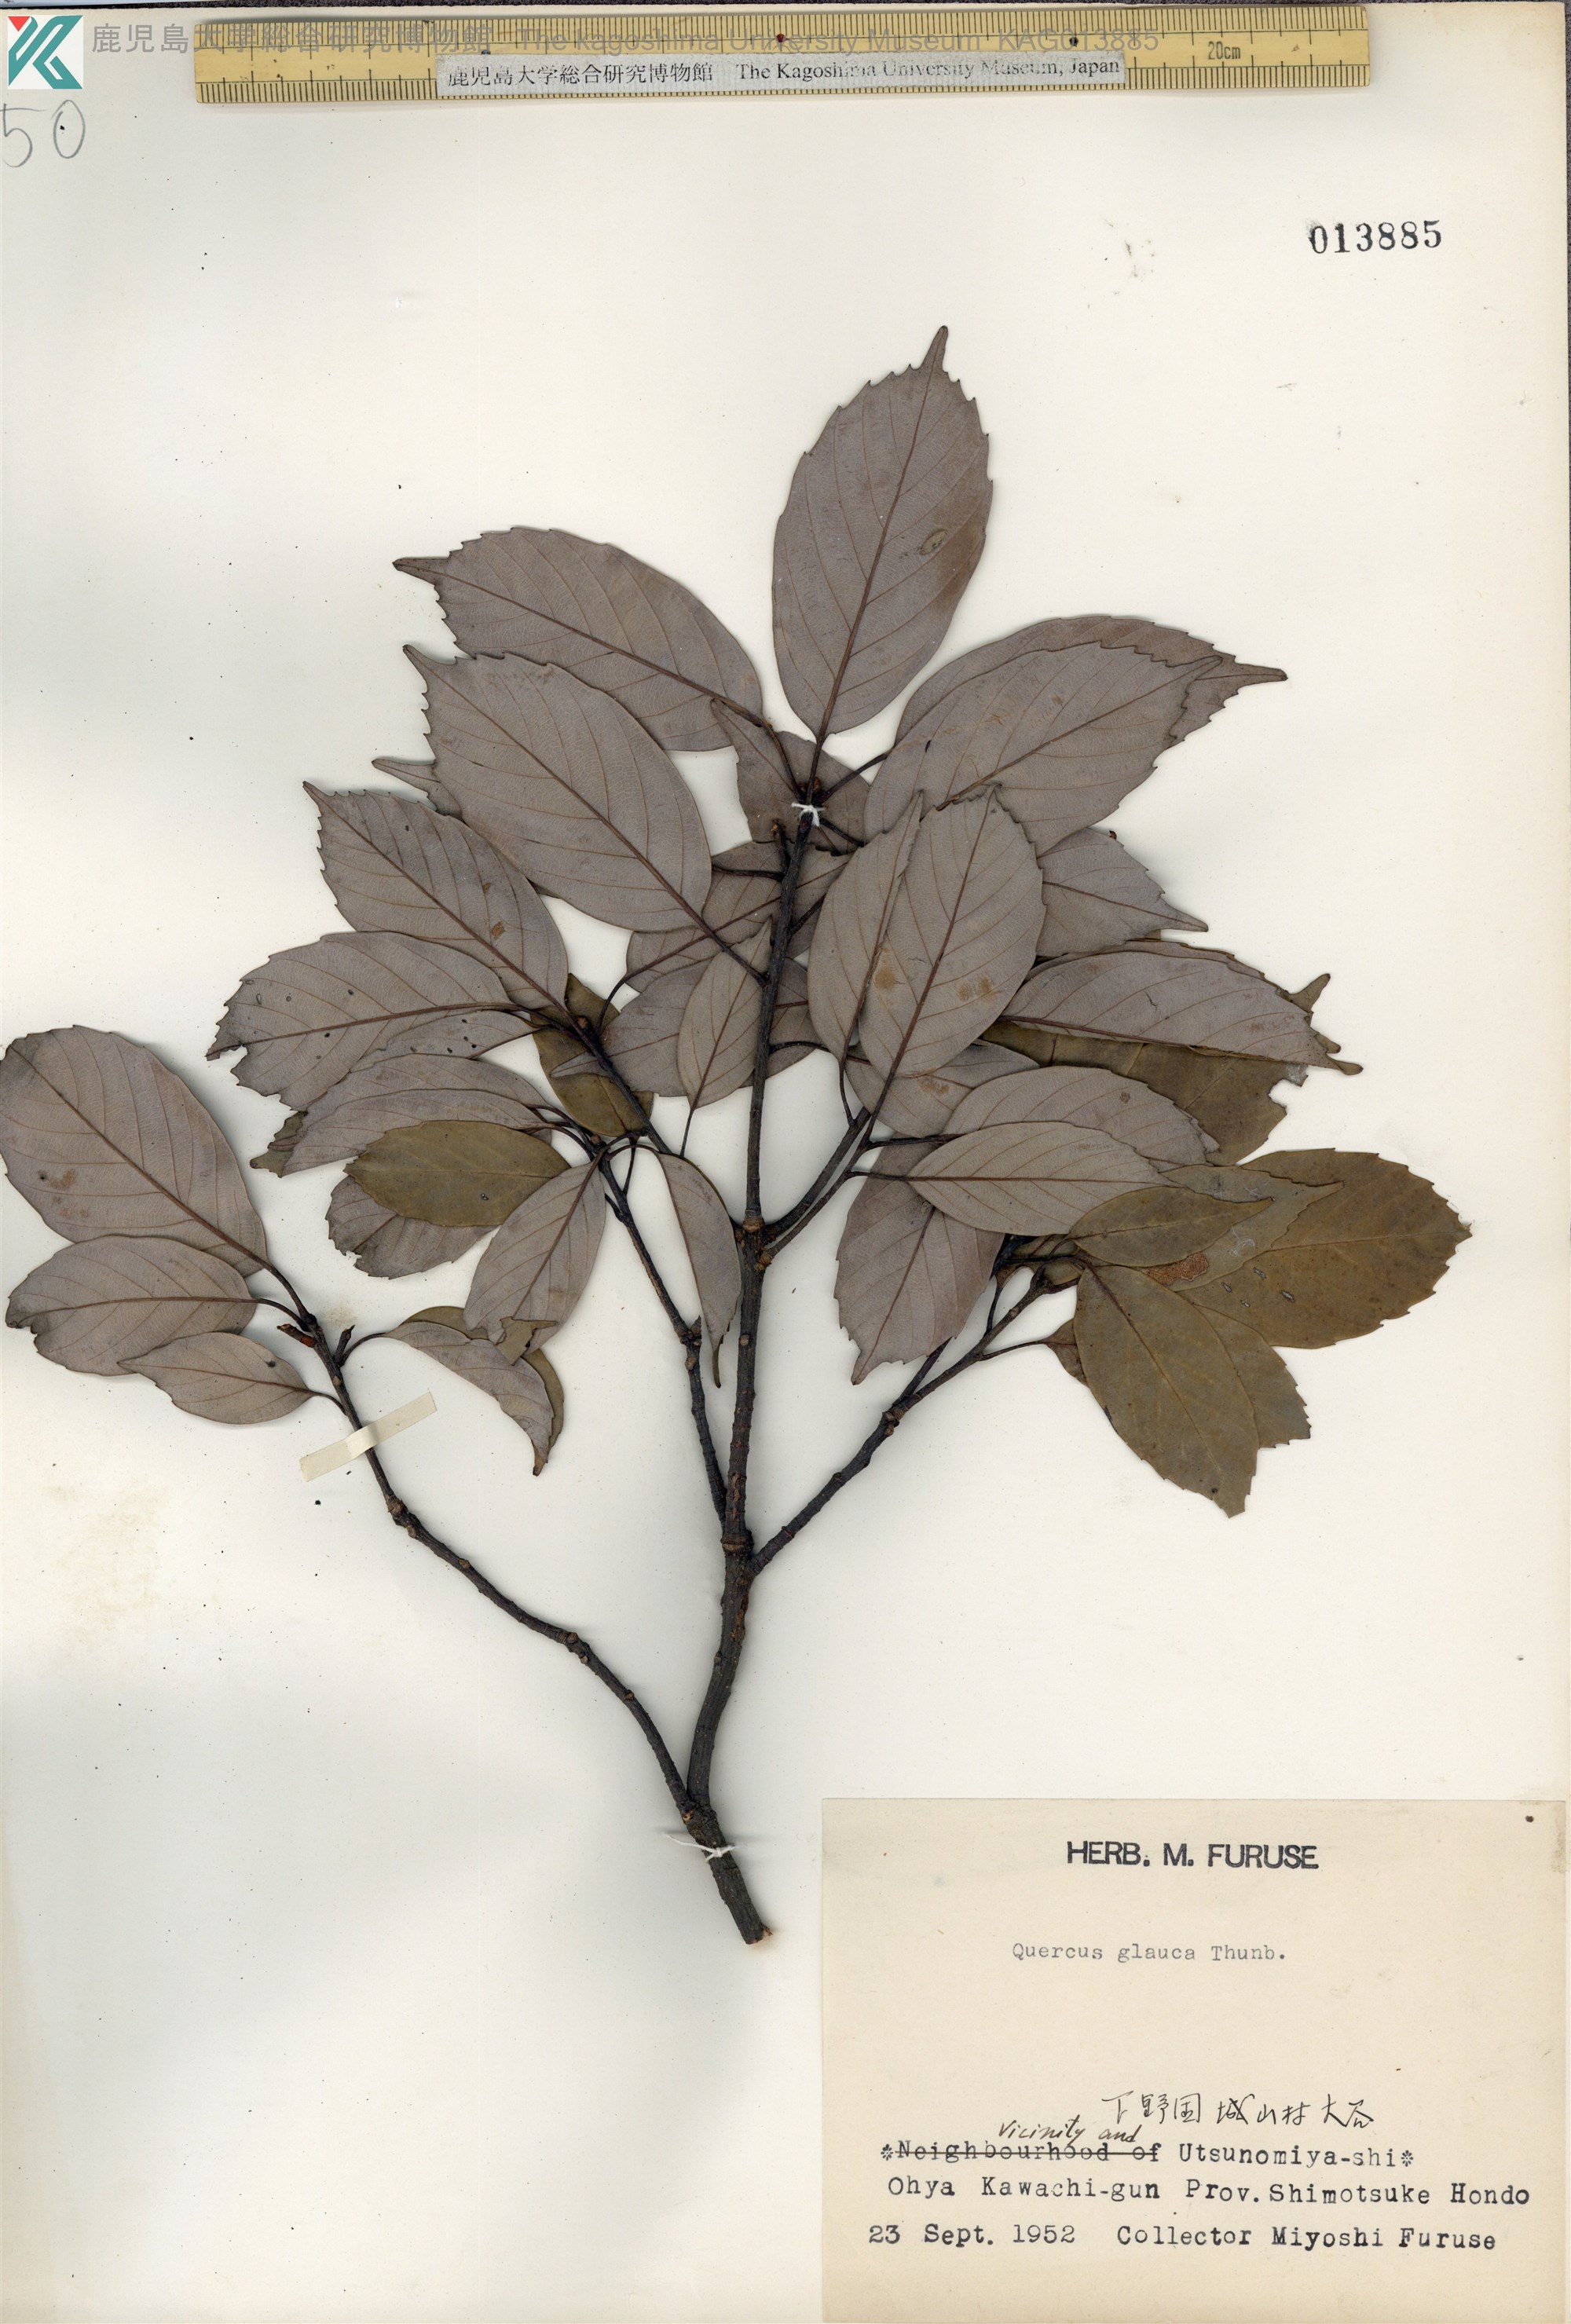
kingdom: Plantae
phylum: Tracheophyta
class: Magnoliopsida
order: Fagales
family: Fagaceae
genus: Quercus
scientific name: Quercus glauca
